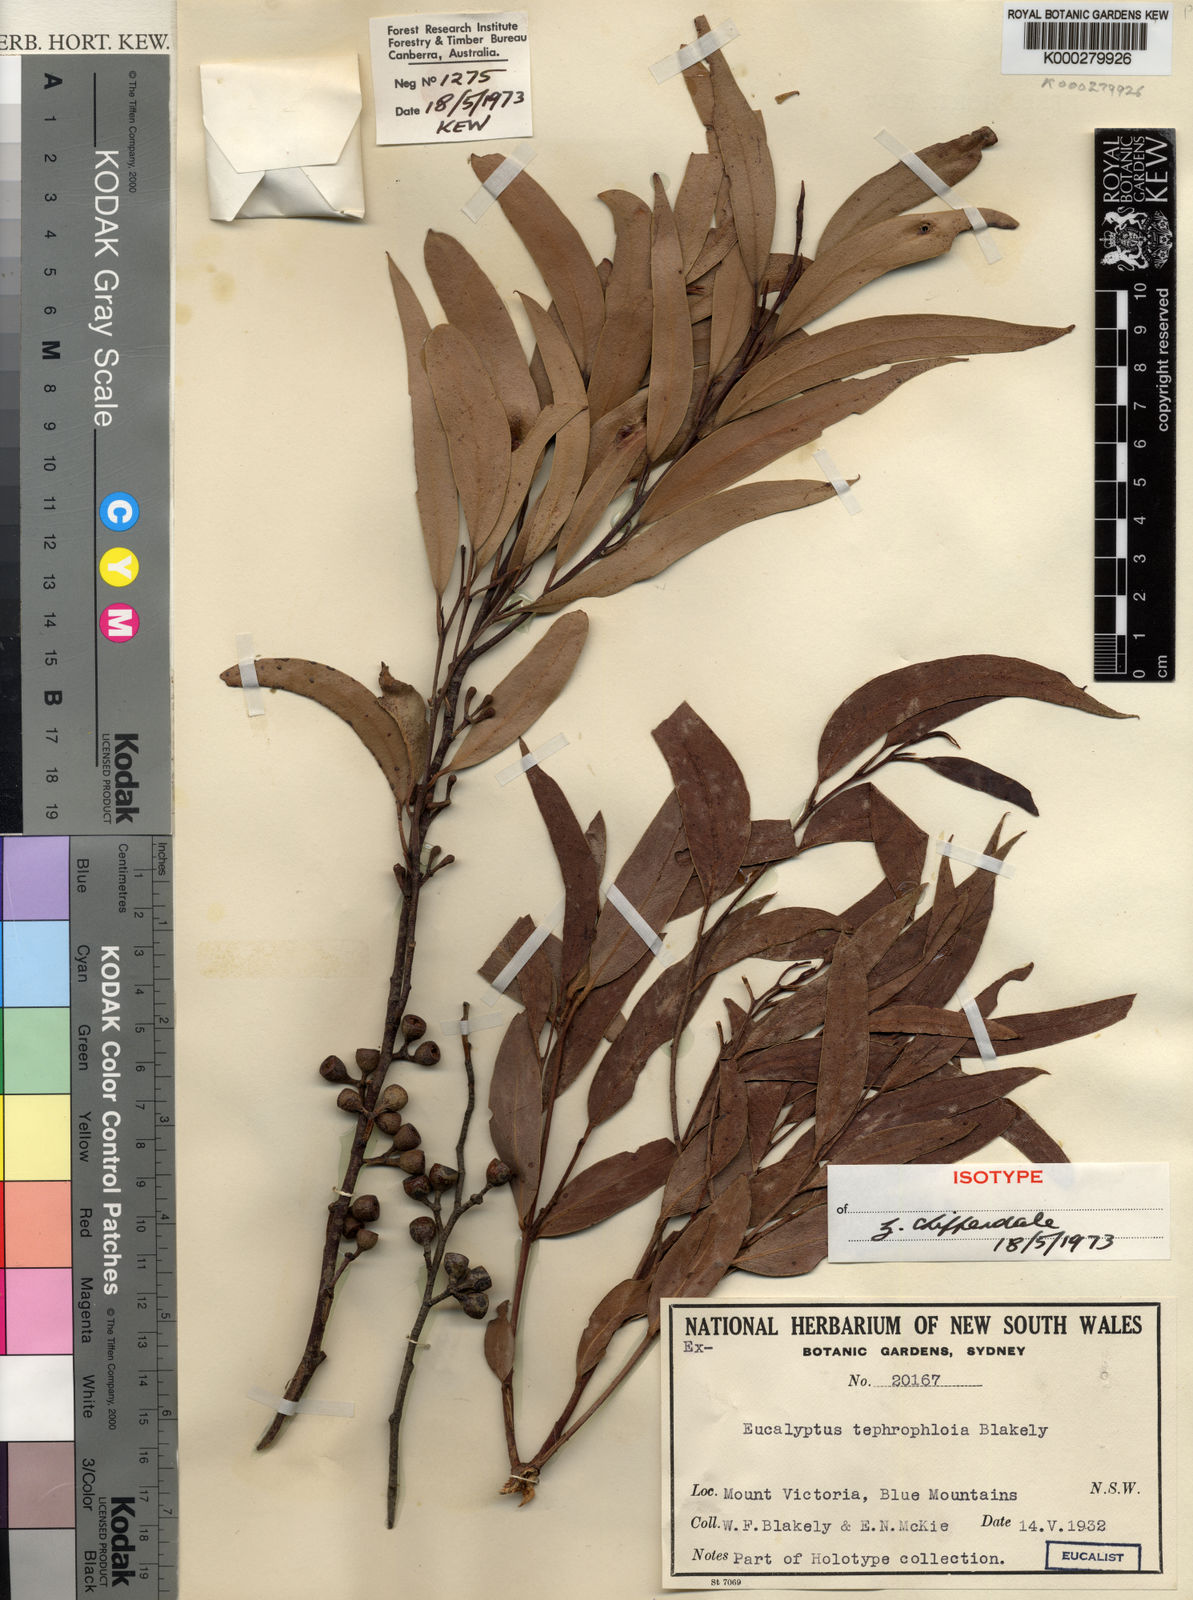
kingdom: Plantae
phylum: Tracheophyta
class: Magnoliopsida
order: Myrtales
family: Myrtaceae
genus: Eucalyptus
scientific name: Eucalyptus tephrophloia
